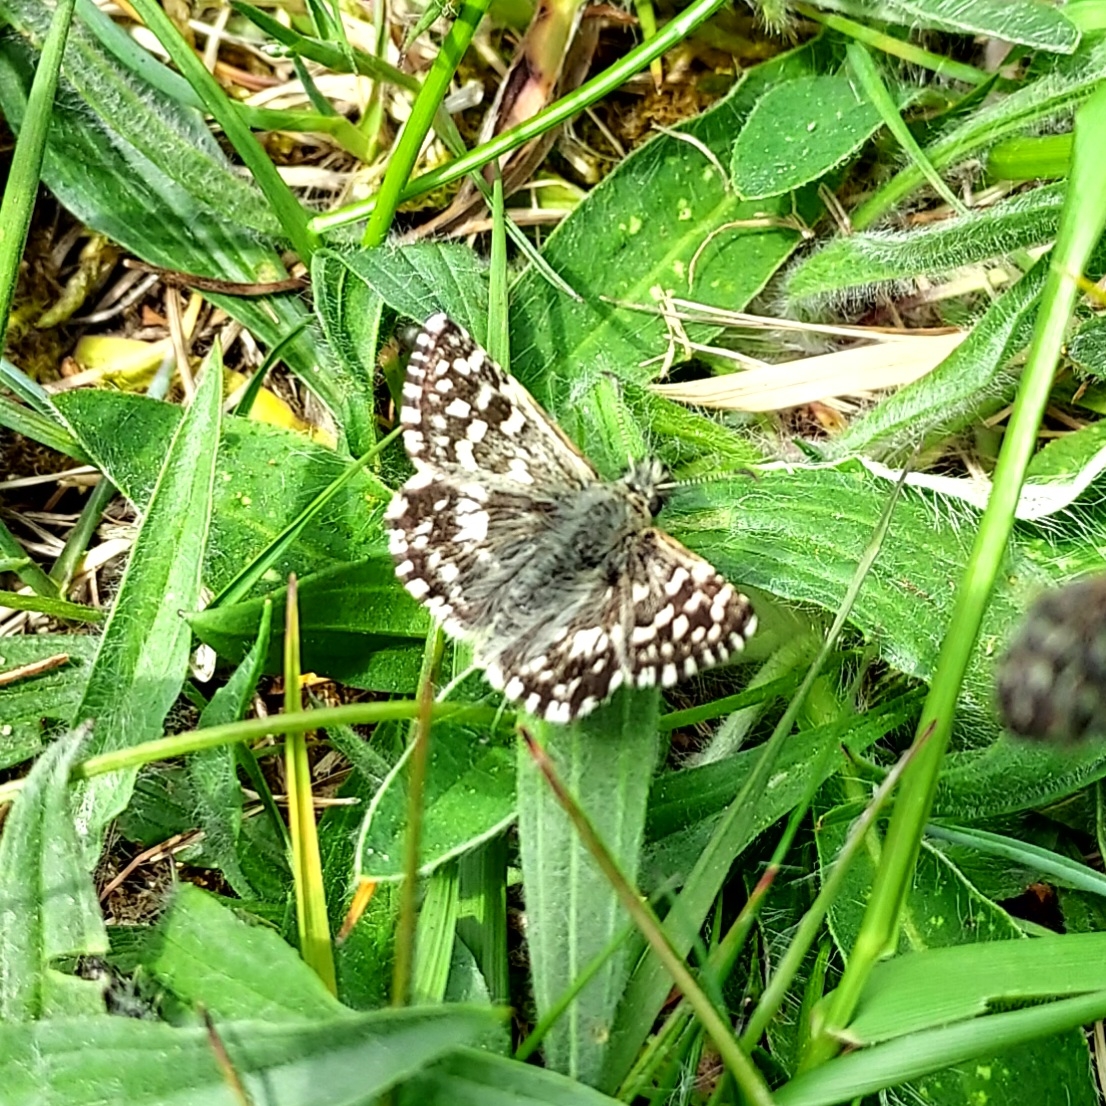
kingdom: Animalia
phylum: Arthropoda
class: Insecta
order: Lepidoptera
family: Hesperiidae
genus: Pyrgus
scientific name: Pyrgus malvae
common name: Spættet bredpande
